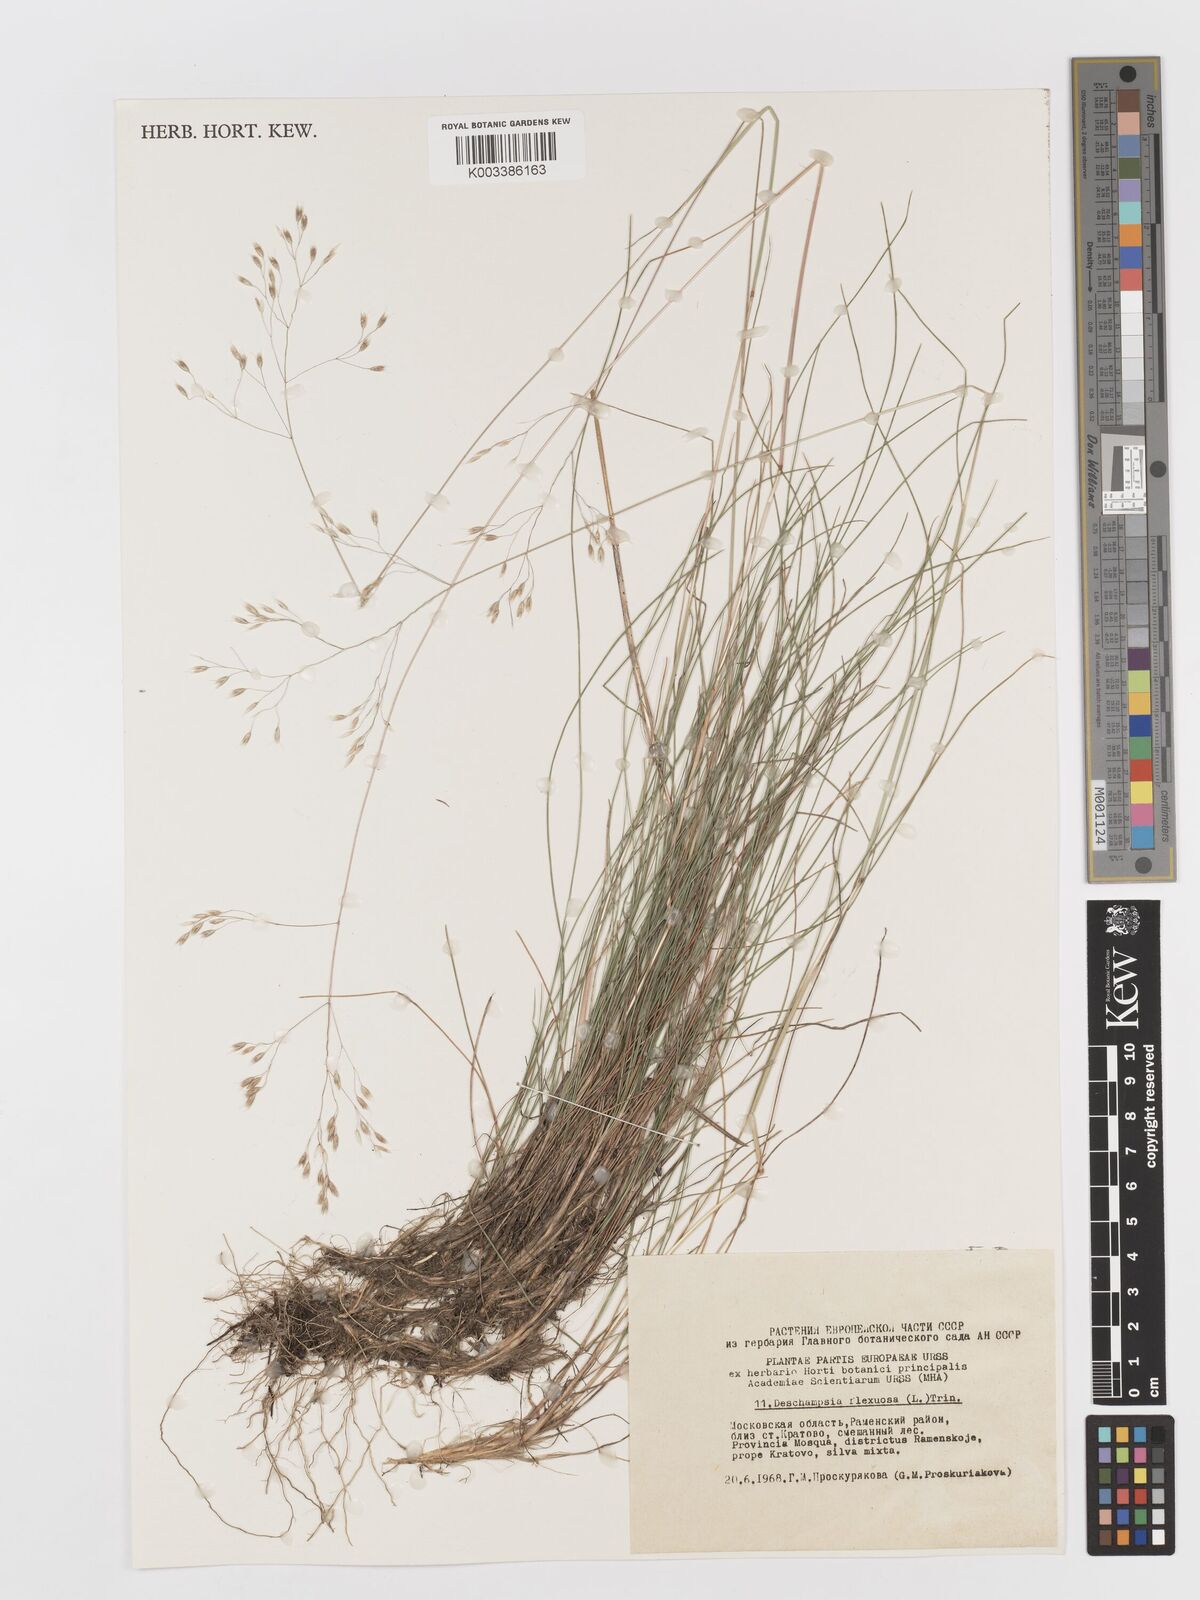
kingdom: Plantae
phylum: Tracheophyta
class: Liliopsida
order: Poales
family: Poaceae
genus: Avenella
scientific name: Avenella flexuosa
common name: Wavy hairgrass
